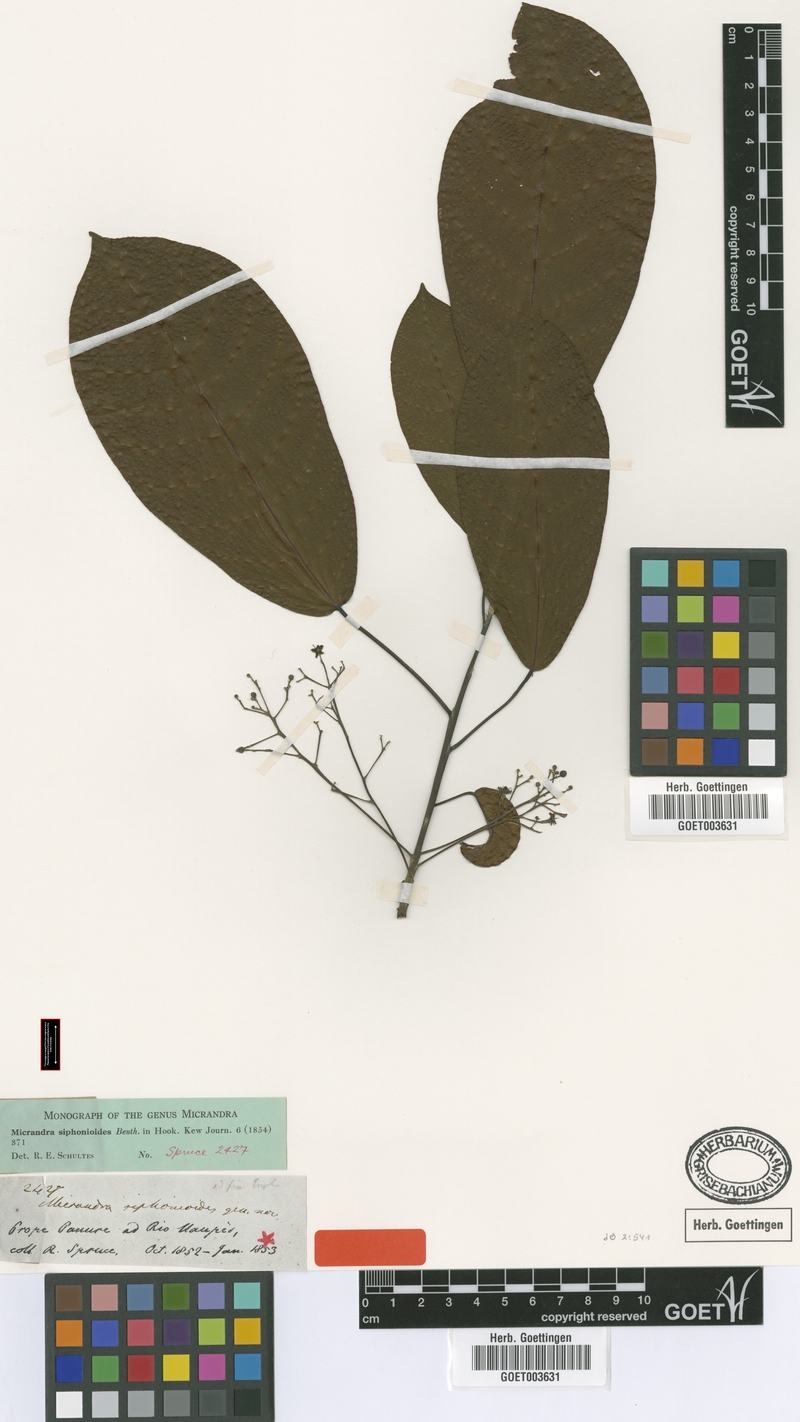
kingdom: Plantae
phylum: Tracheophyta
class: Magnoliopsida
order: Malpighiales
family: Euphorbiaceae
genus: Micrandra
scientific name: Micrandra siphonioides
